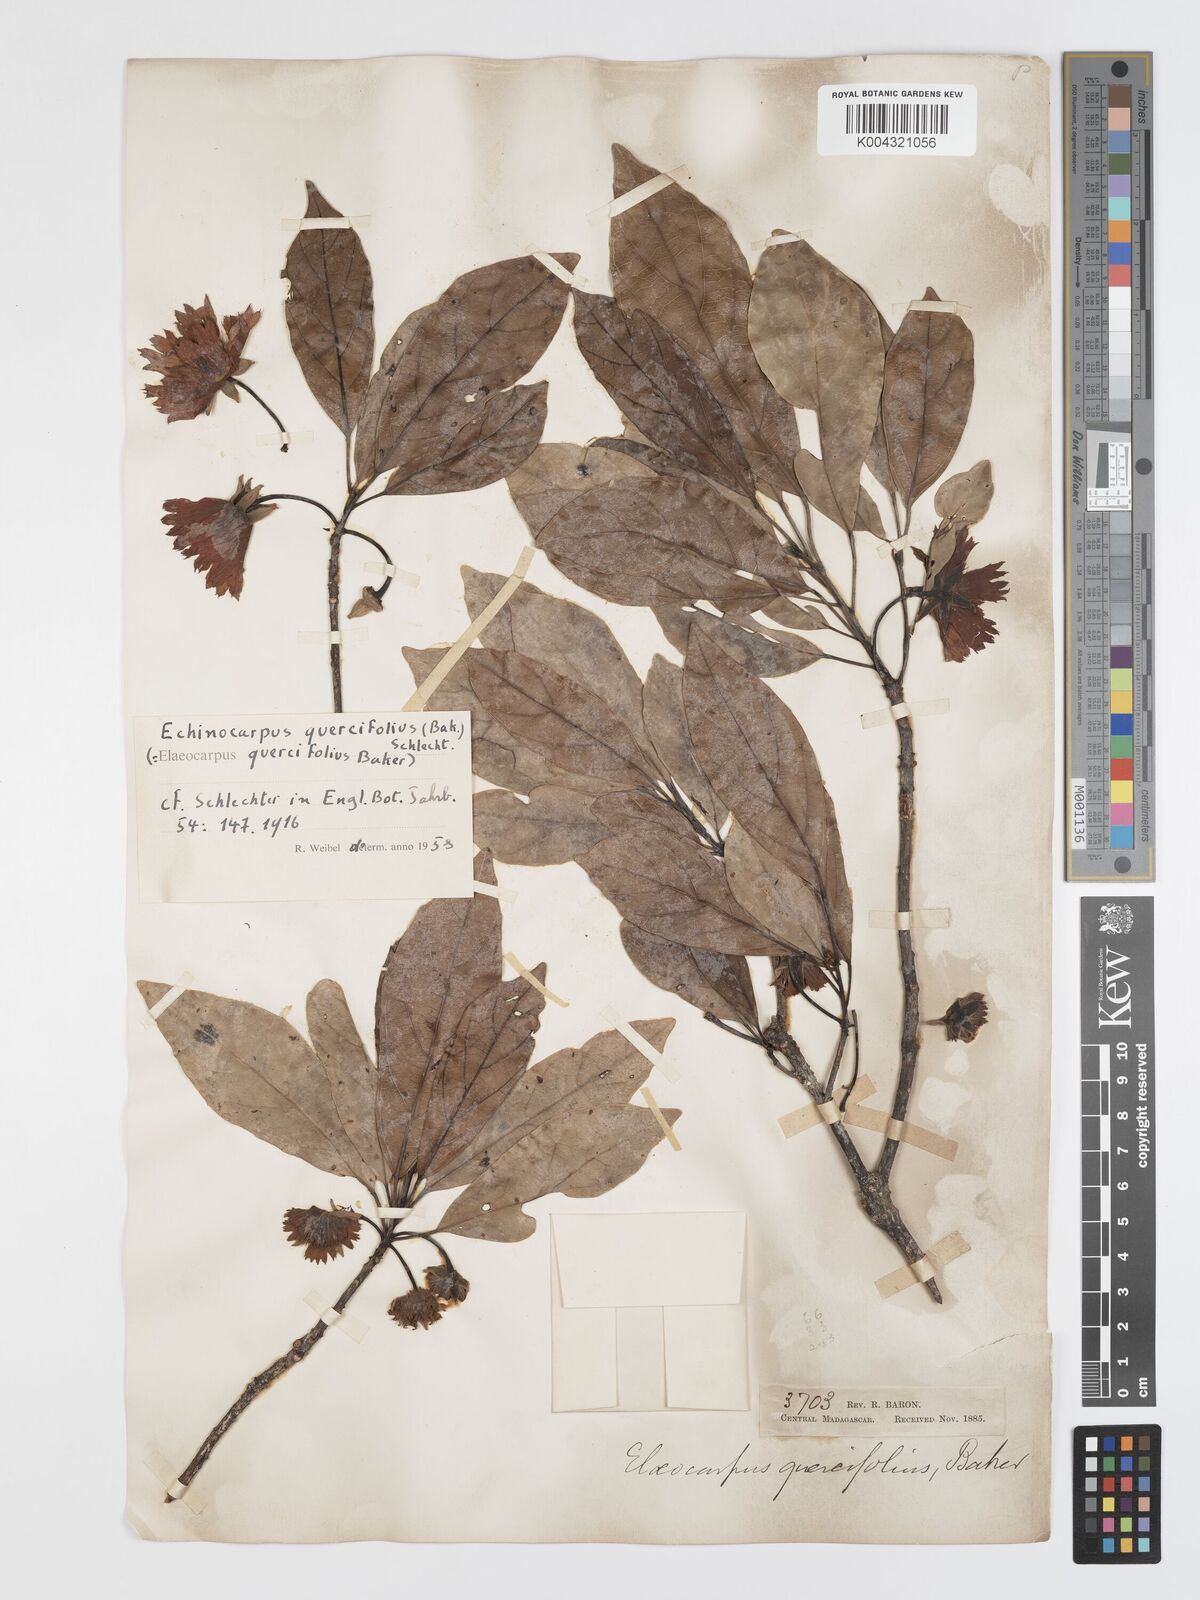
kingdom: Plantae
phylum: Tracheophyta
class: Magnoliopsida
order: Oxalidales
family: Elaeocarpaceae
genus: Sloanea
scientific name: Sloanea rhodantha
